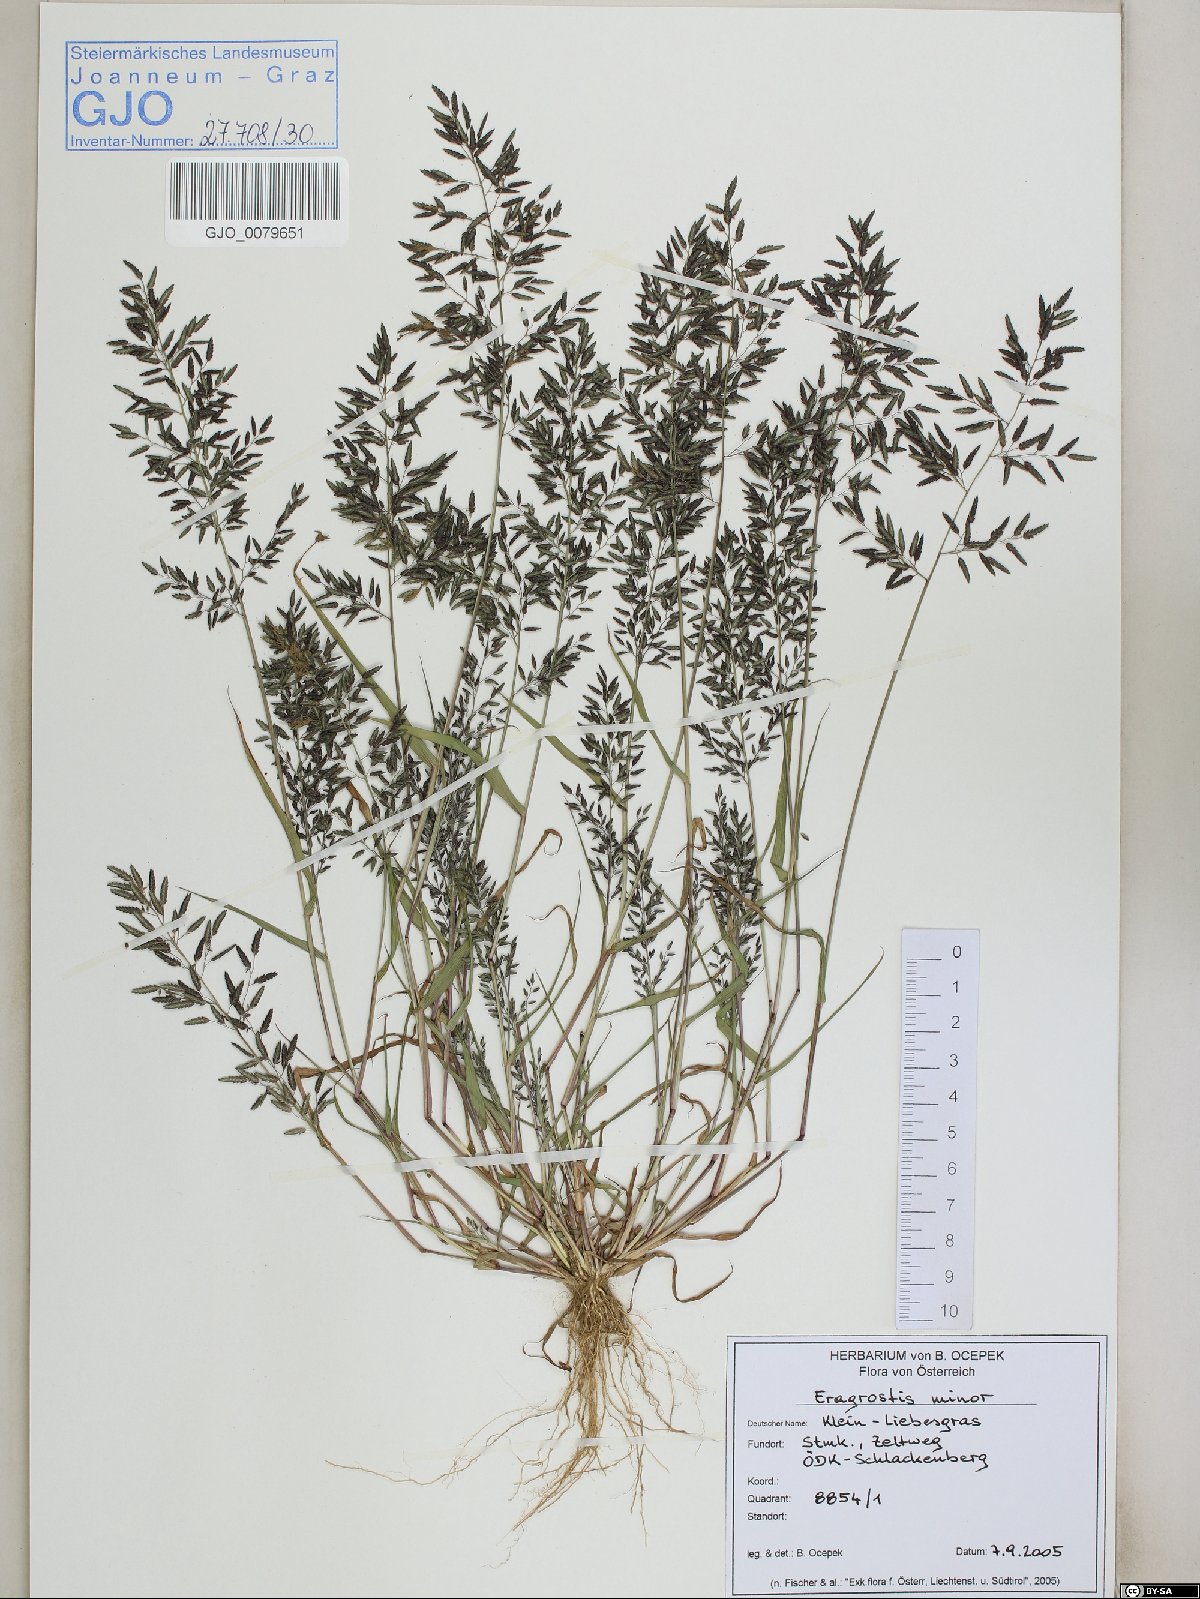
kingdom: Plantae
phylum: Tracheophyta
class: Liliopsida
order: Poales
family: Poaceae
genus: Eragrostis
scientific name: Eragrostis minor
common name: Small love-grass
